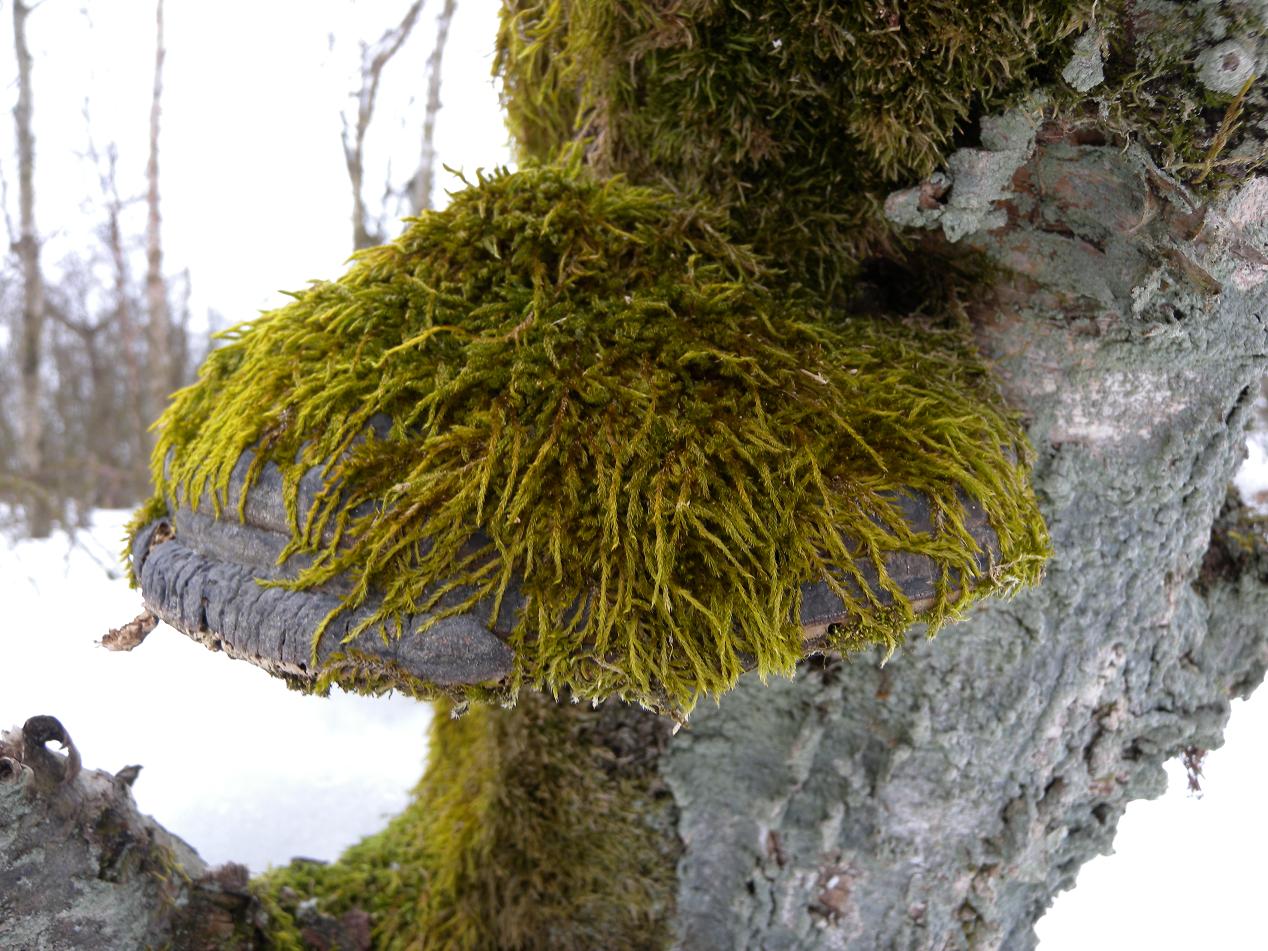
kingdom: Fungi
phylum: Basidiomycota
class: Agaricomycetes
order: Polyporales
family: Polyporaceae
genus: Fomes
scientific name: Fomes fomentarius
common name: tøndersvamp
